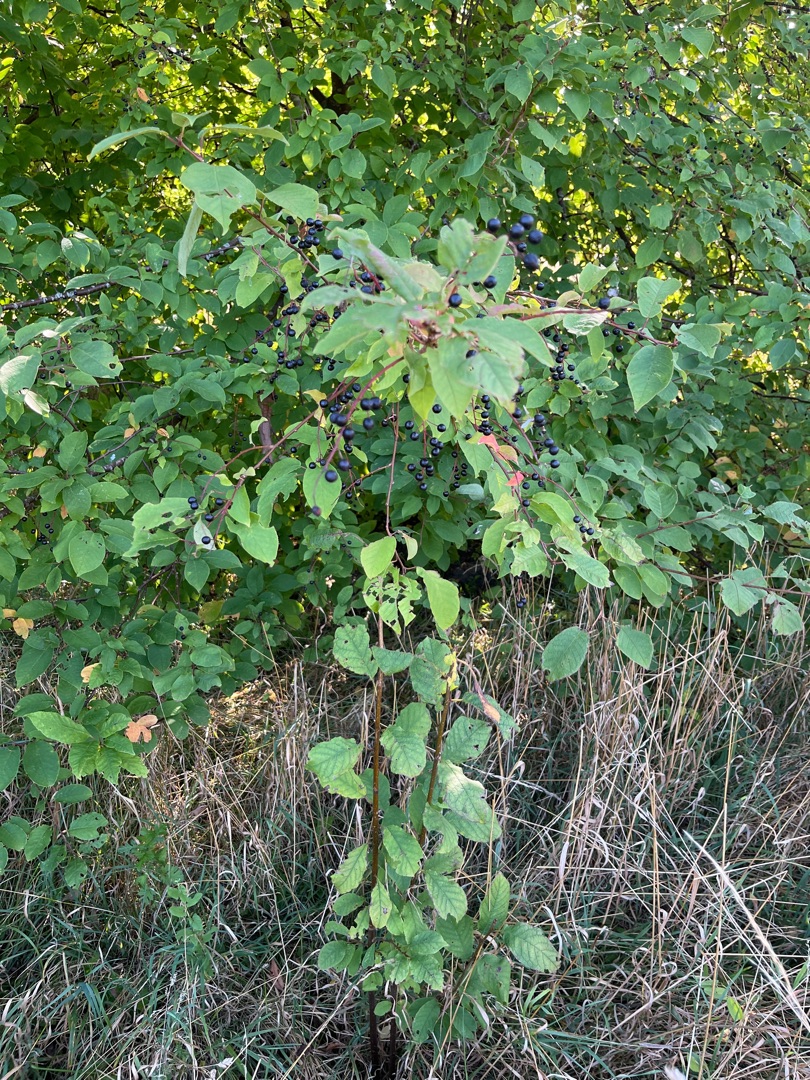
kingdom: Plantae
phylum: Tracheophyta
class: Magnoliopsida
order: Rosales
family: Rosaceae
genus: Prunus
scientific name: Prunus padus
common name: Almindelig hæg
